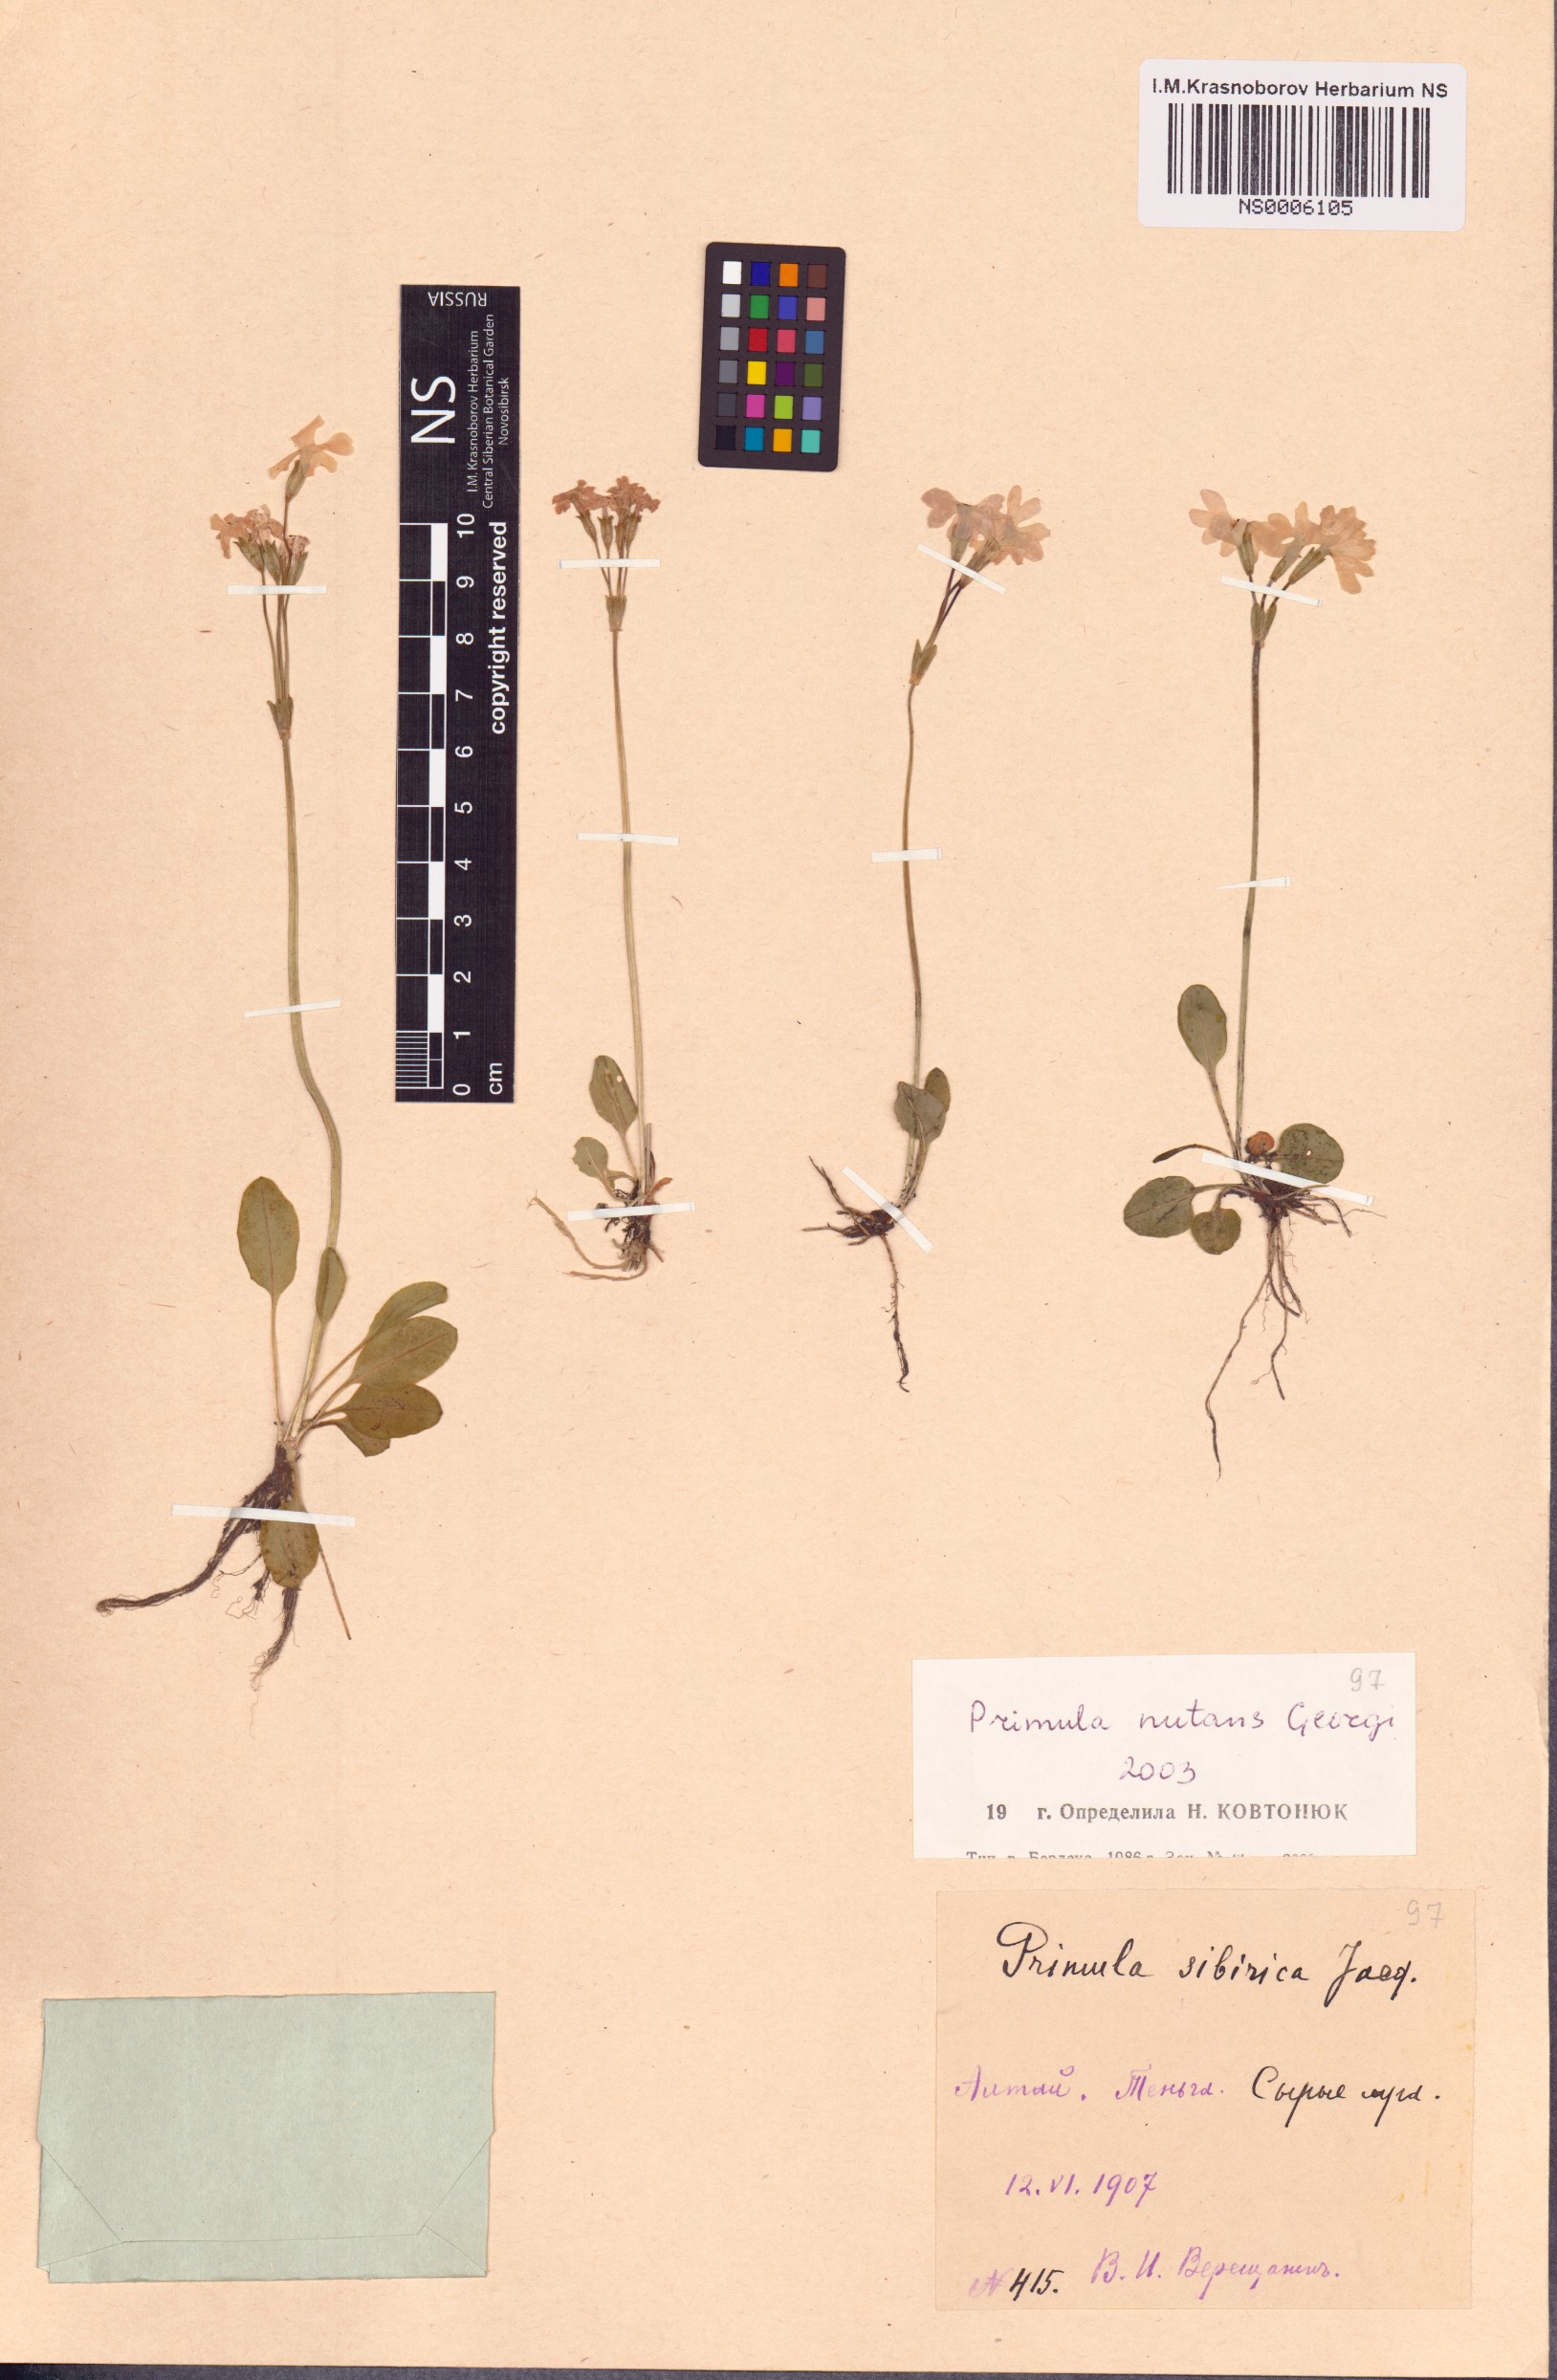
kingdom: Plantae
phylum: Tracheophyta
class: Magnoliopsida
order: Ericales
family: Primulaceae
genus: Primula
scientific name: Primula nutans
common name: Siberian primrose
